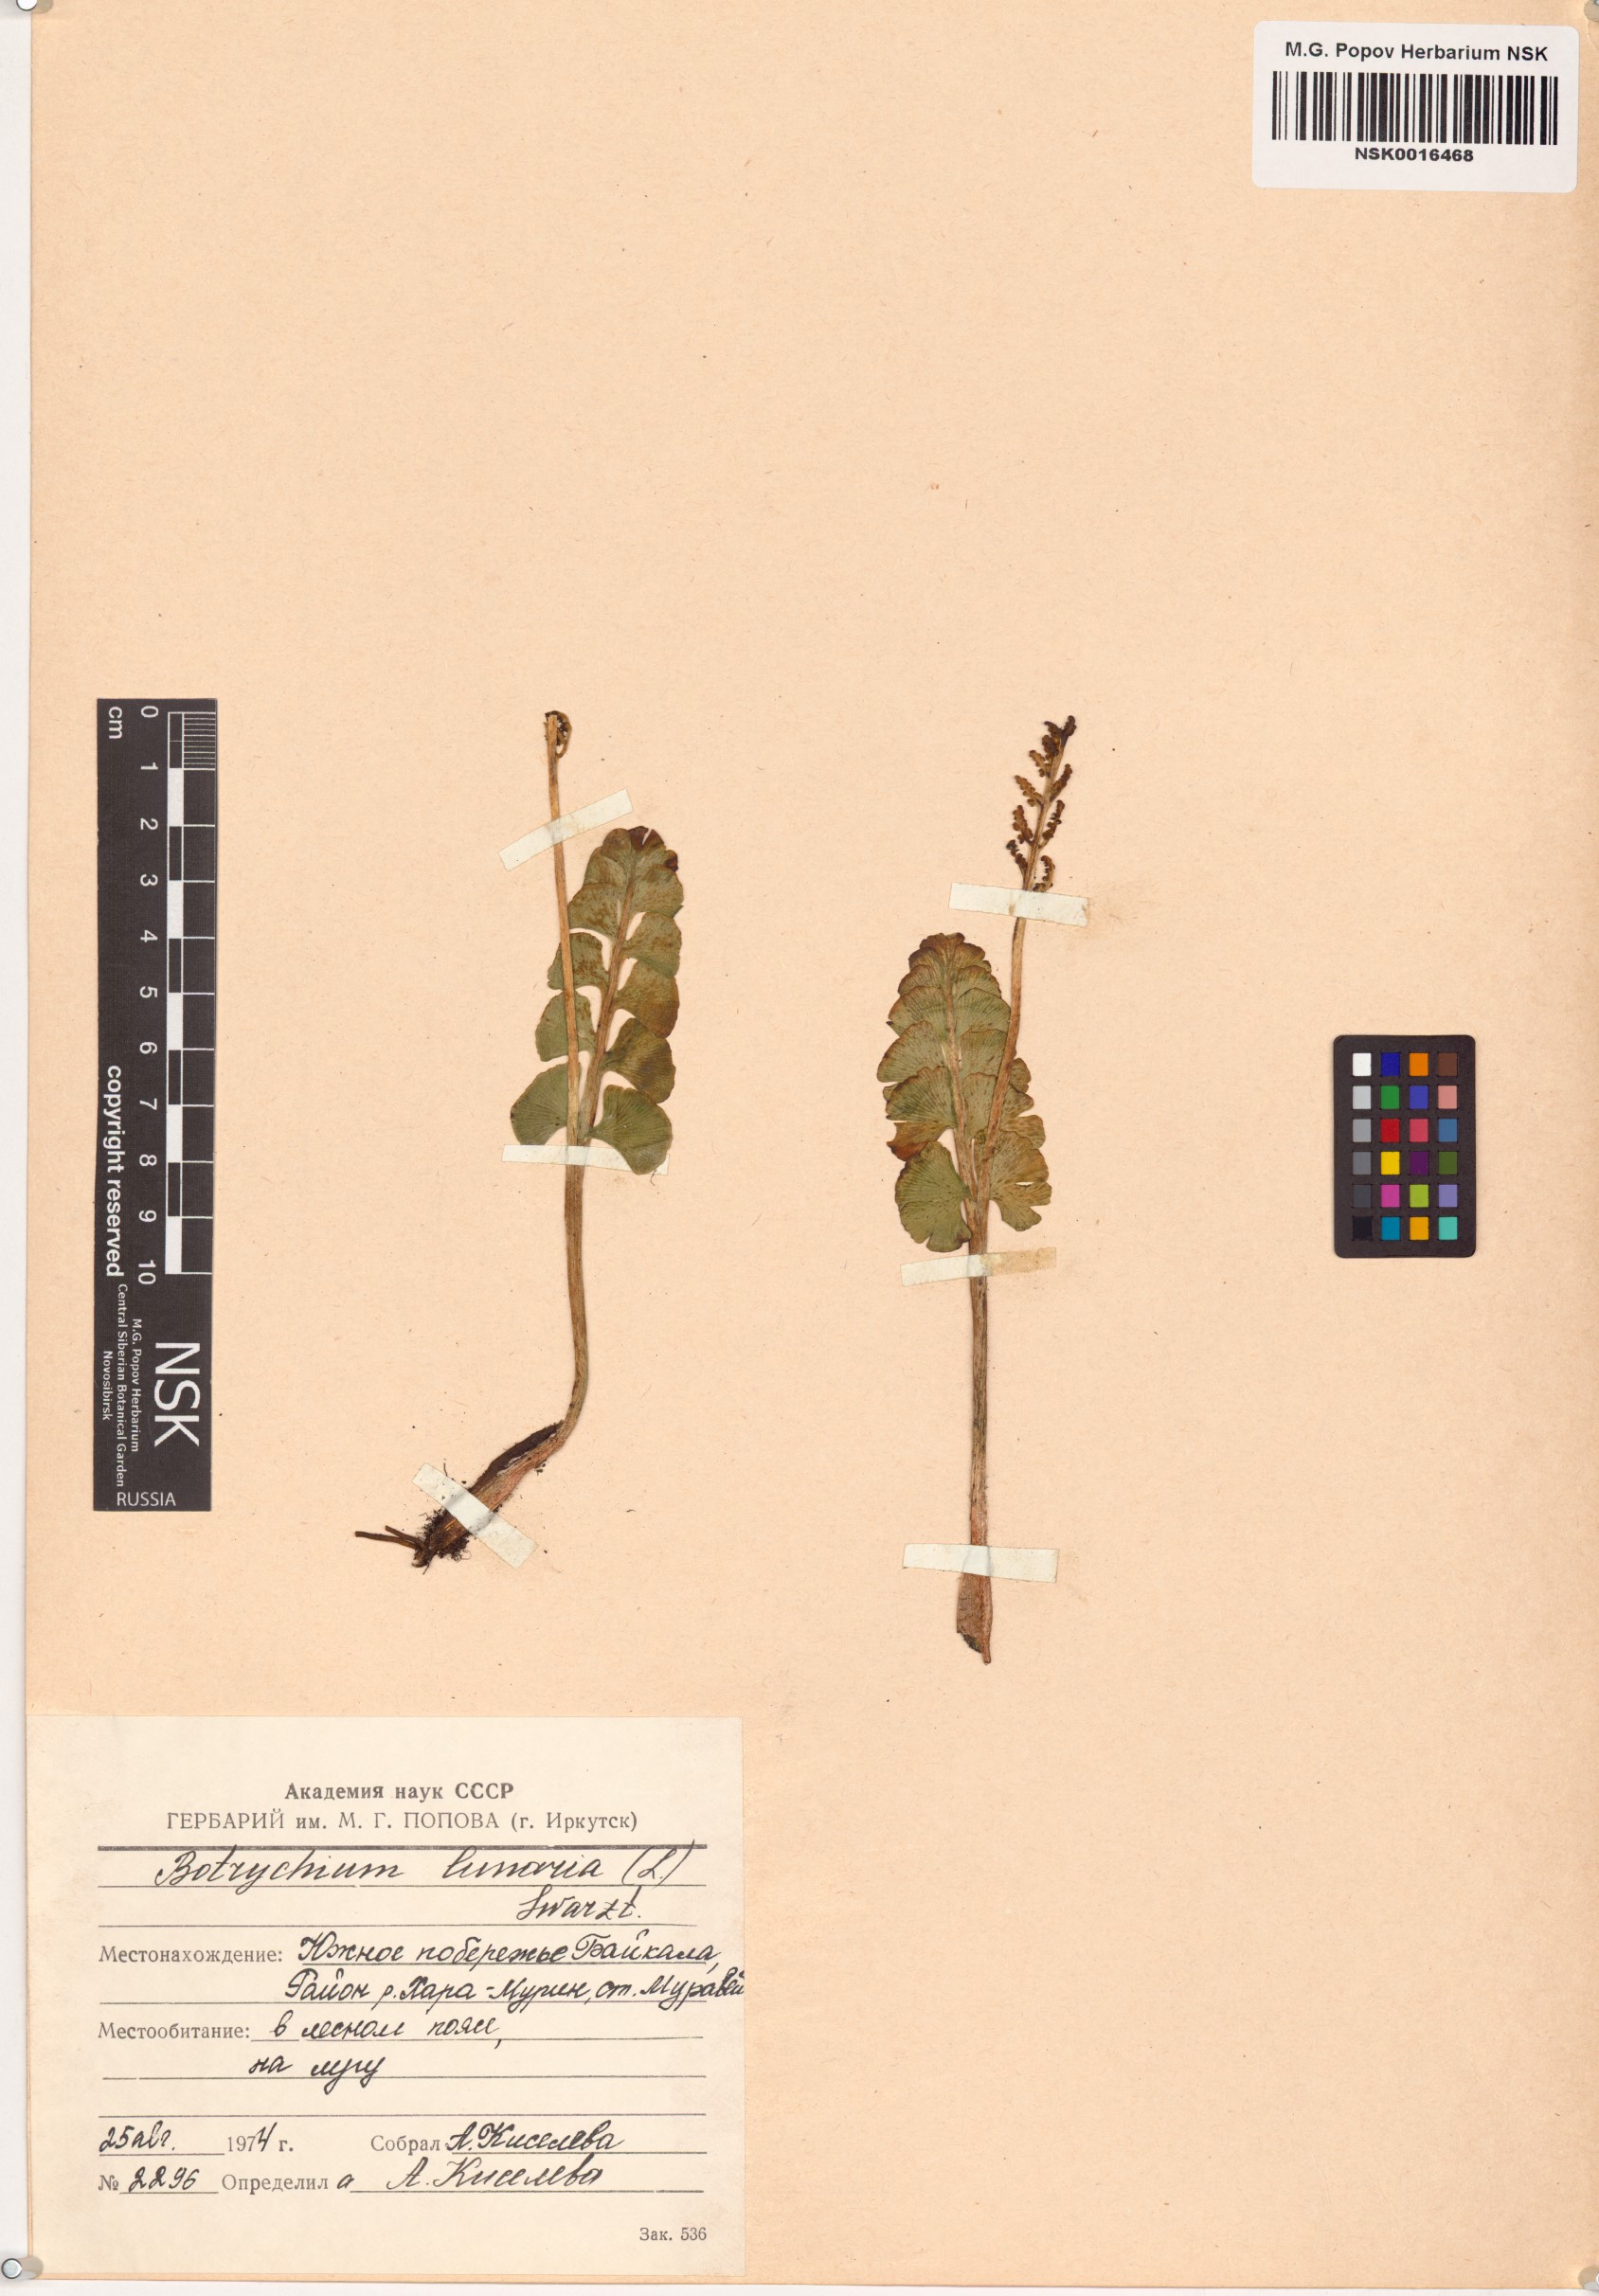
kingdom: Plantae
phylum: Tracheophyta
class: Polypodiopsida
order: Ophioglossales
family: Ophioglossaceae
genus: Botrychium
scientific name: Botrychium lunaria
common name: Moonwort
